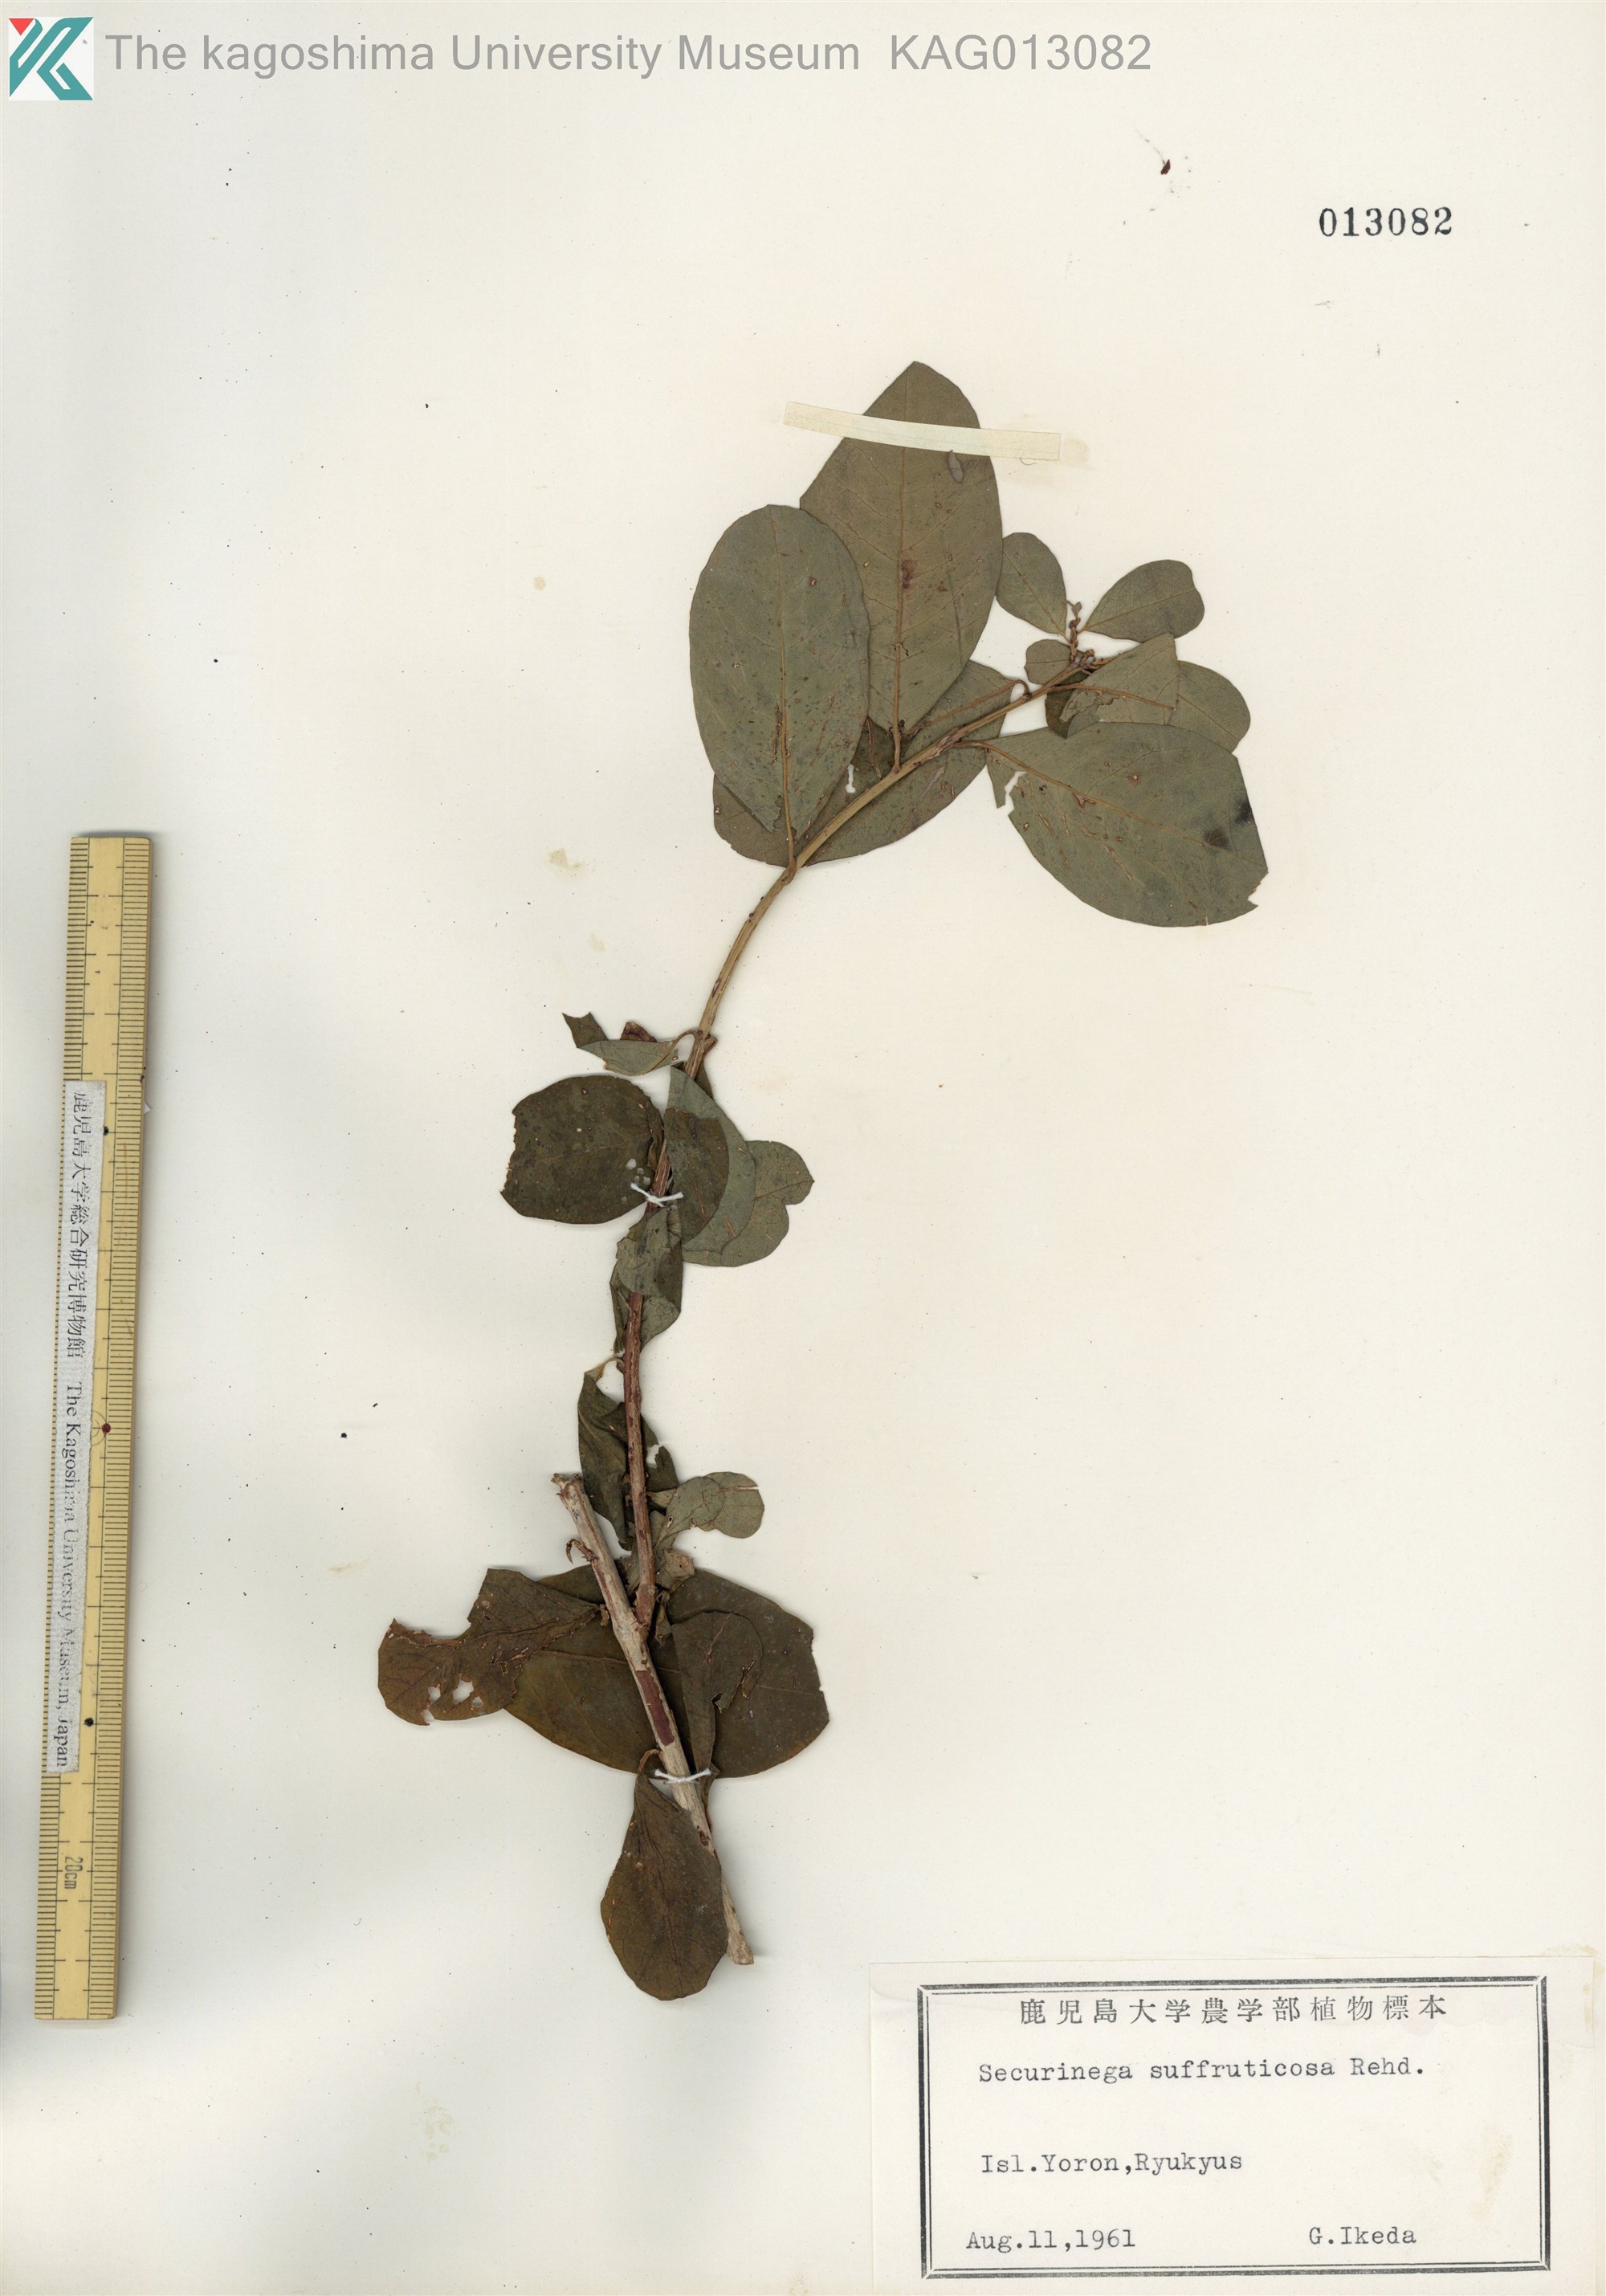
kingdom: Plantae
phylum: Tracheophyta
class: Magnoliopsida
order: Malpighiales
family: Phyllanthaceae
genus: Flueggea
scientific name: Flueggea suffruticosa
